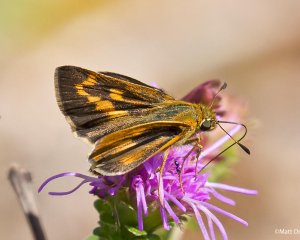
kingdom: Animalia
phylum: Arthropoda
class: Insecta
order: Lepidoptera
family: Hesperiidae
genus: Hesperia
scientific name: Hesperia meskei
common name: Meske's Skipper
